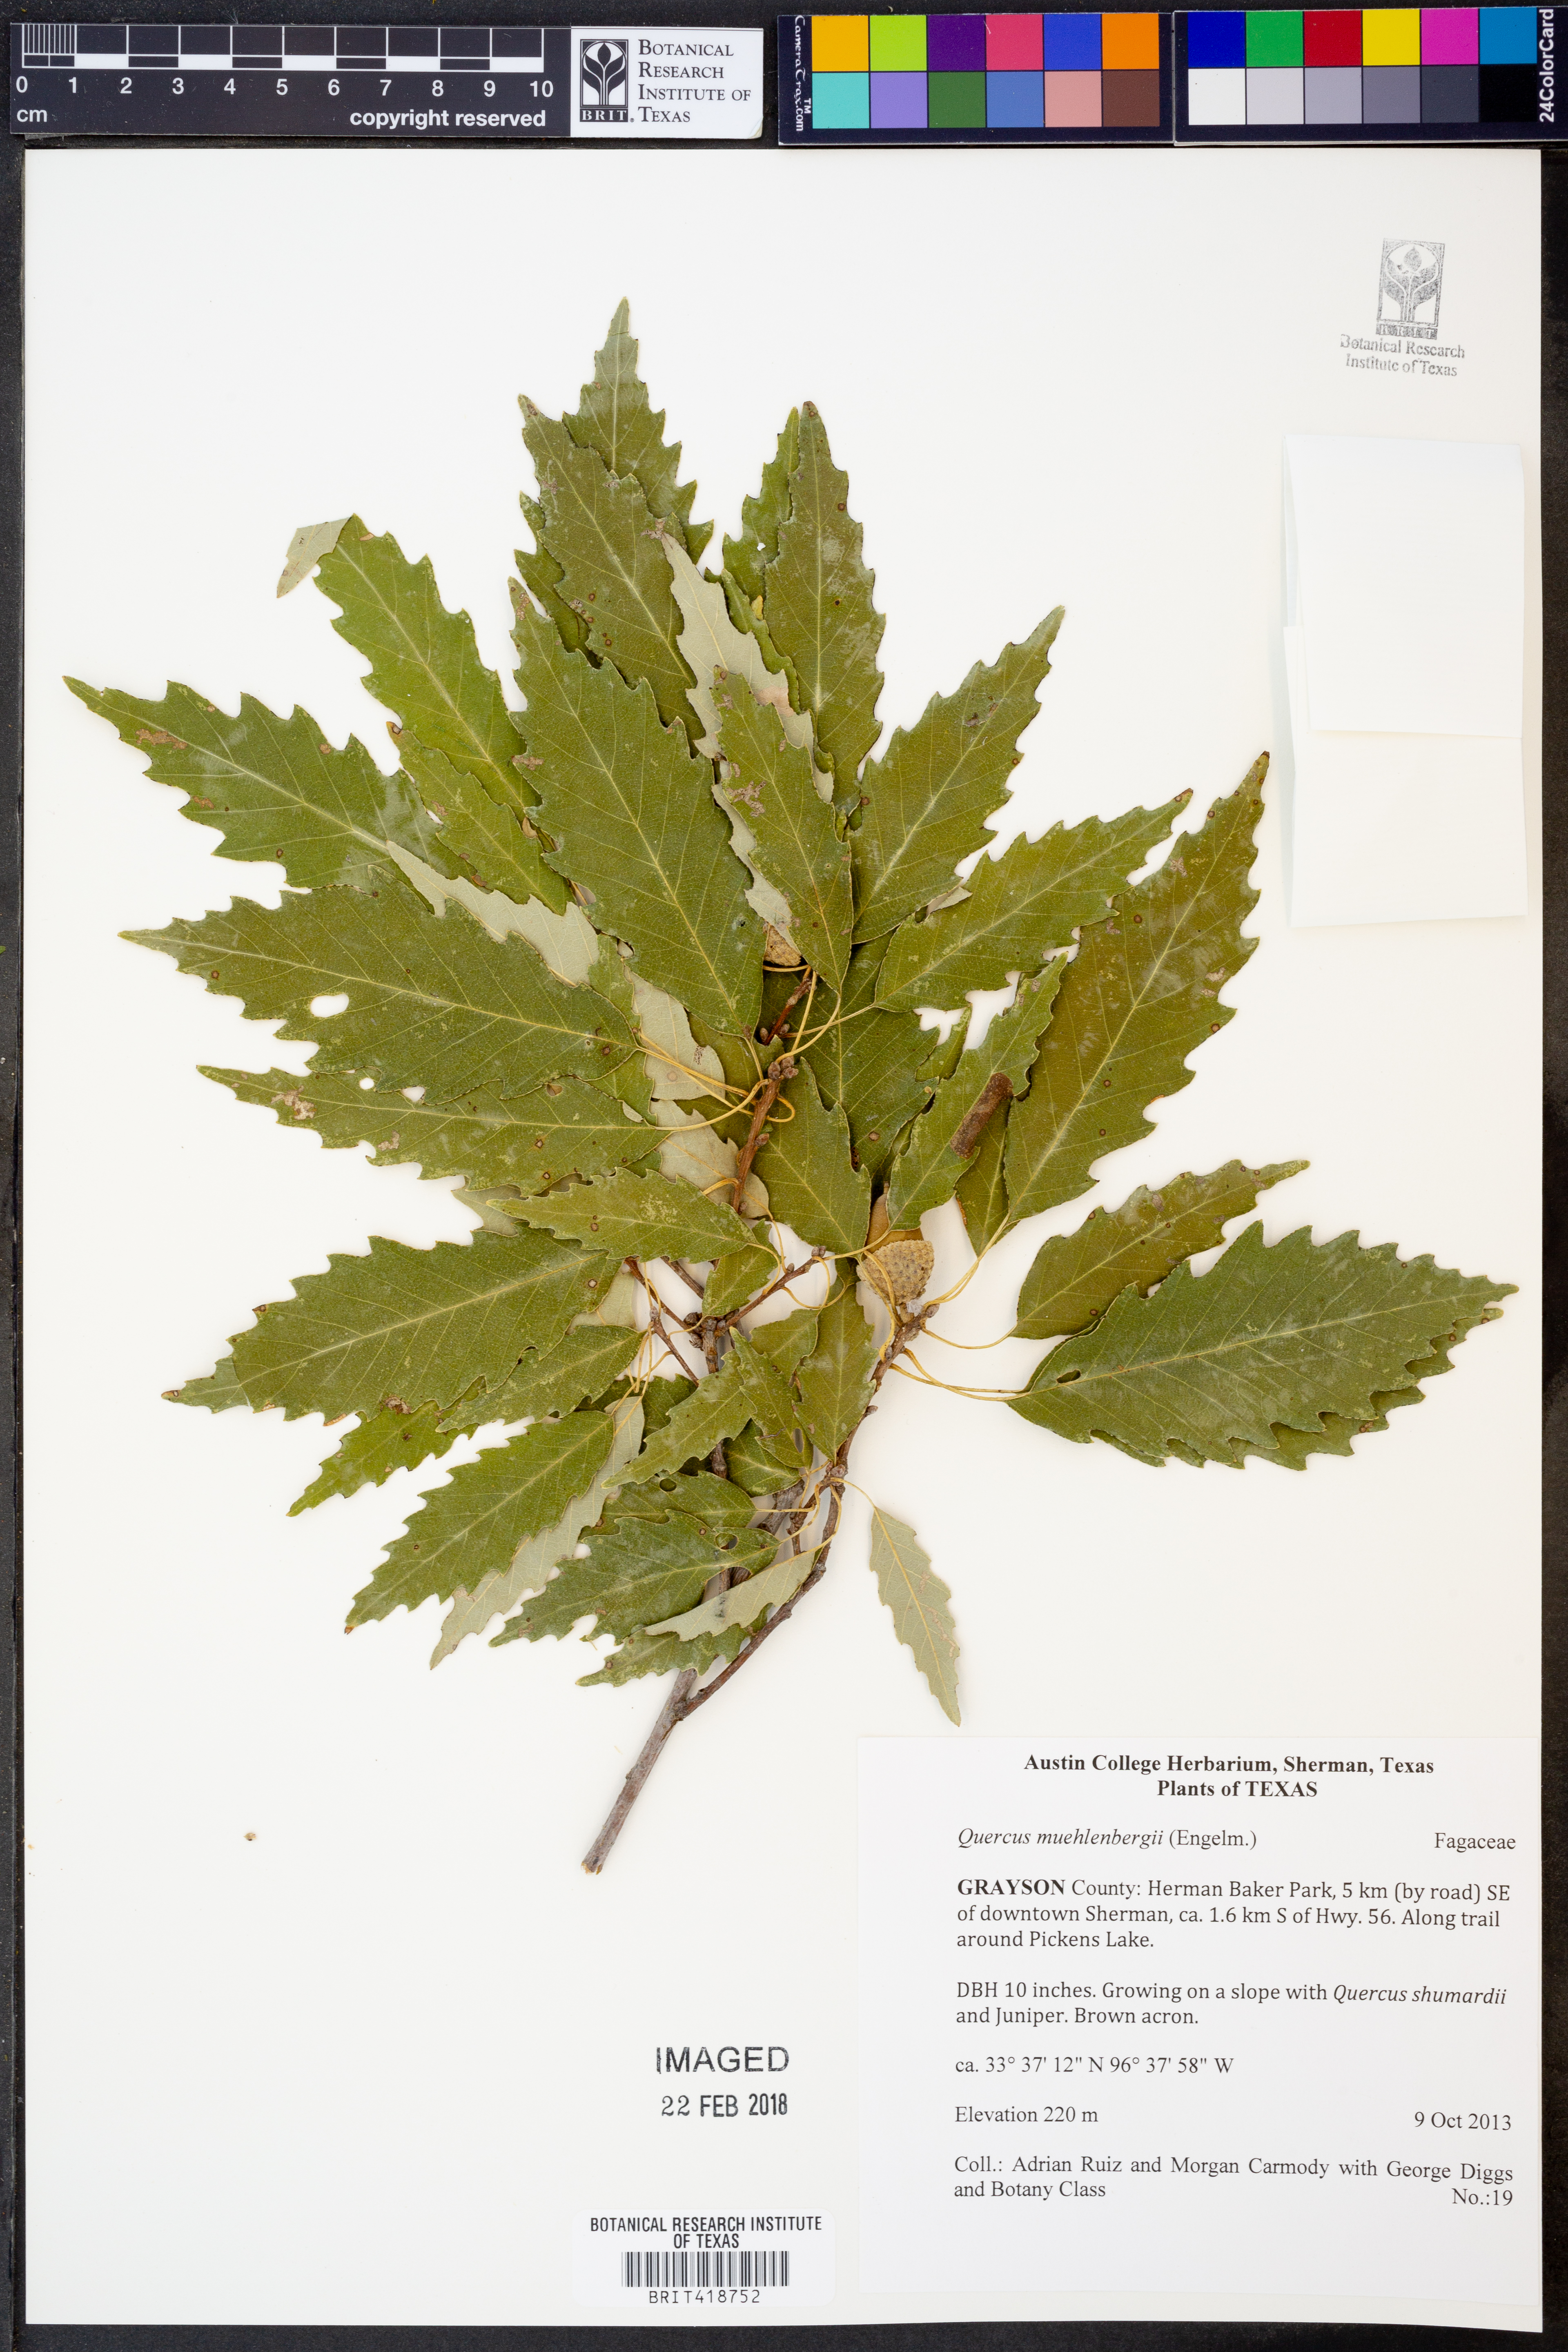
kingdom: Plantae
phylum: Tracheophyta
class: Magnoliopsida
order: Fagales
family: Fagaceae
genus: Quercus
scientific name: Quercus muehlenbergii
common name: Chinkapin oak
